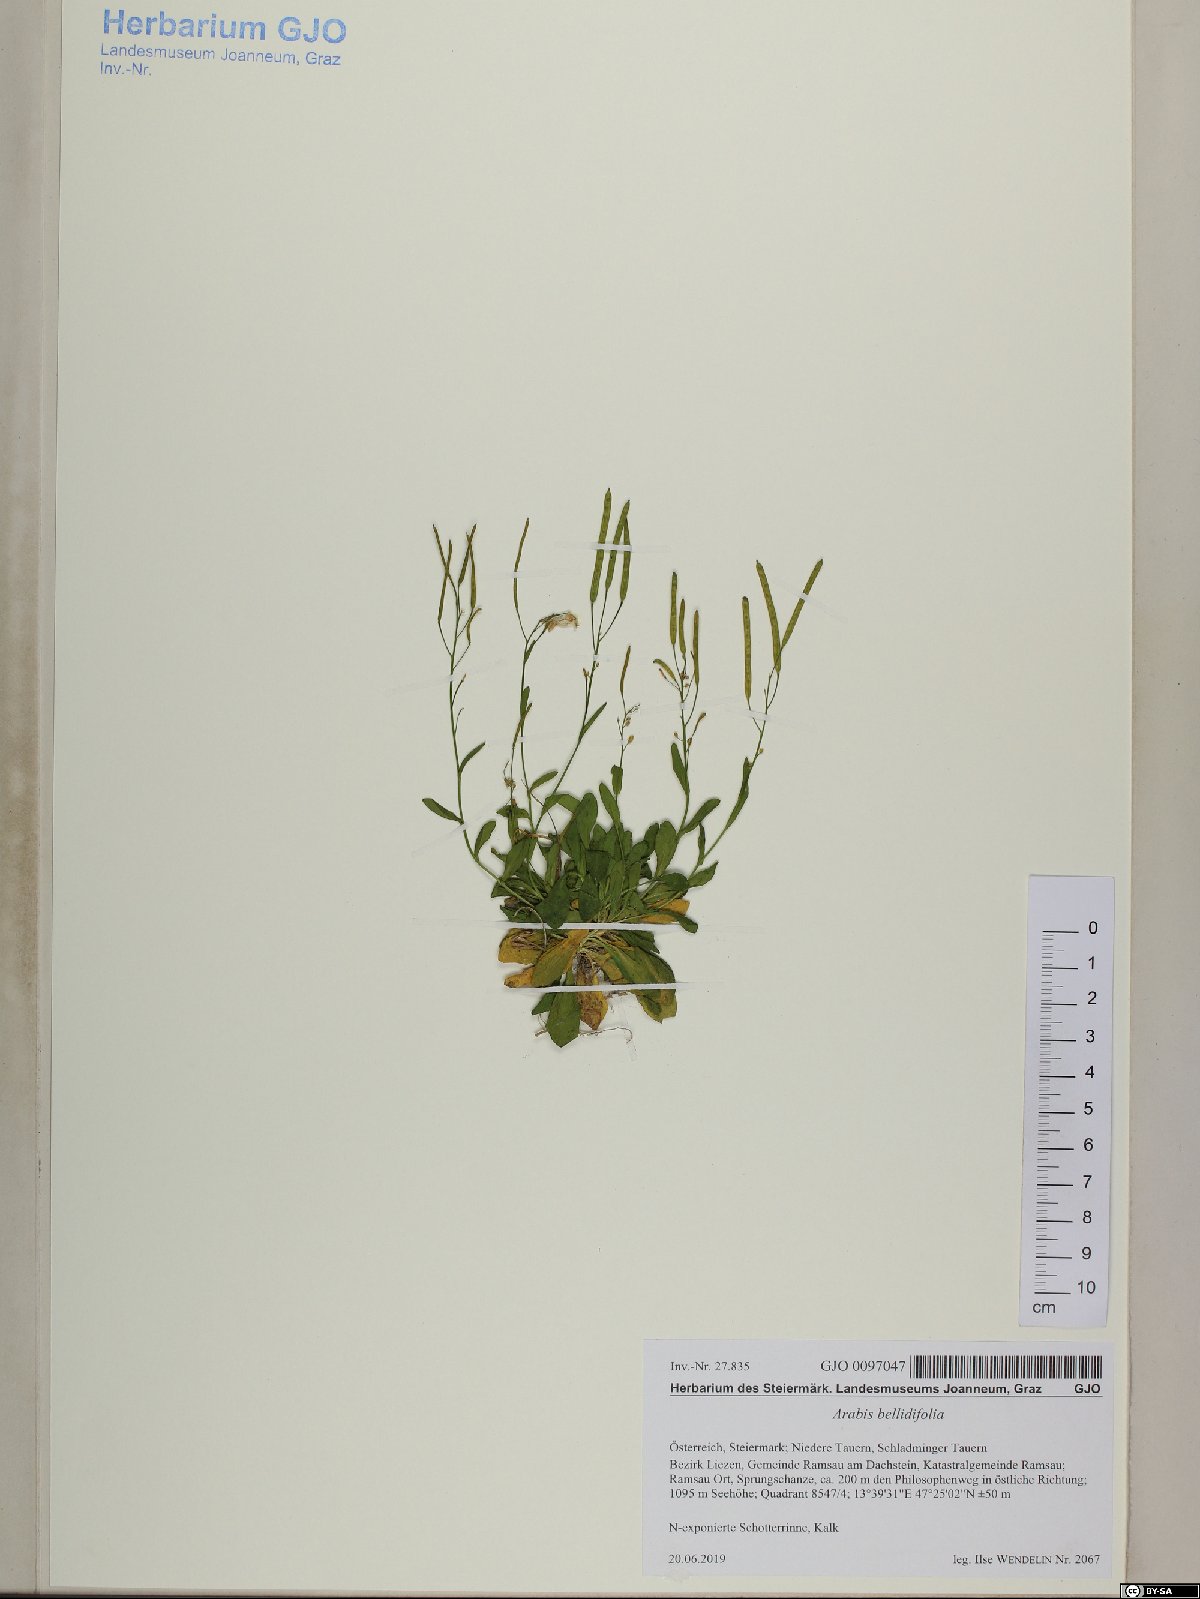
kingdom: Plantae
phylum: Tracheophyta
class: Magnoliopsida
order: Brassicales
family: Brassicaceae
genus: Arabis
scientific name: Arabis pumila
